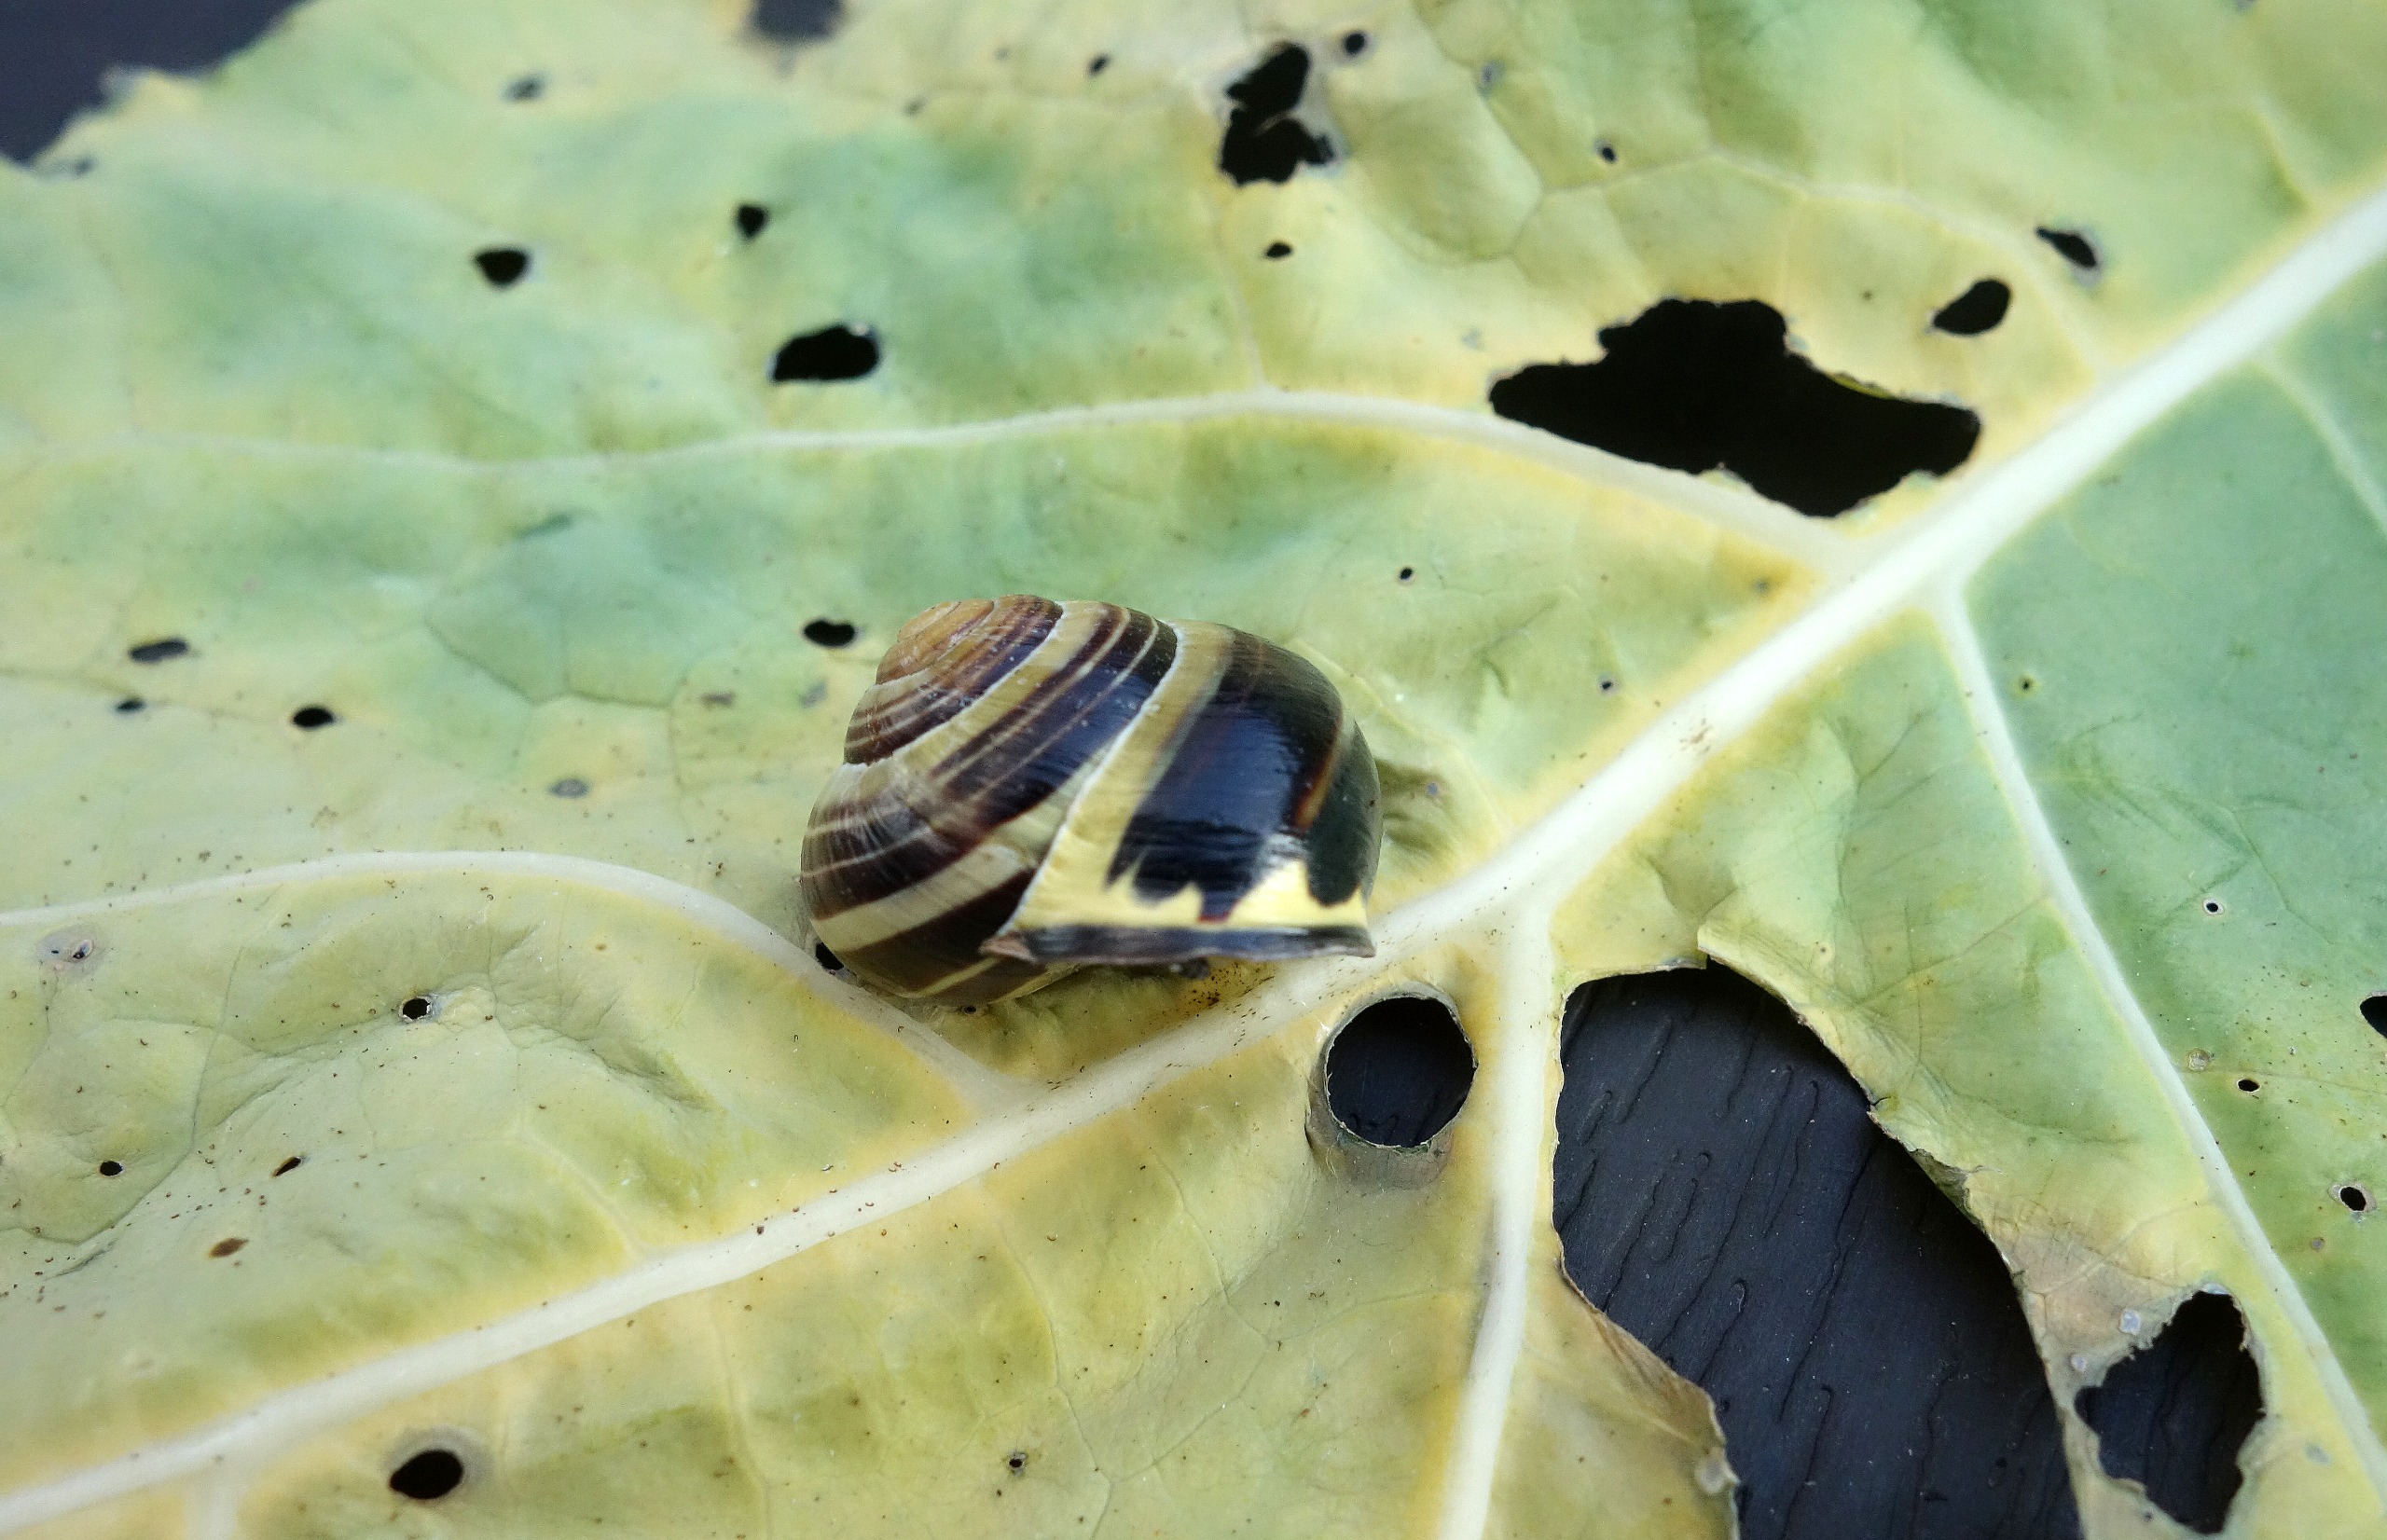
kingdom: Animalia
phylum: Mollusca
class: Gastropoda
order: Stylommatophora
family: Helicidae
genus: Cepaea
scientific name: Cepaea nemoralis
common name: Lundsnegl
